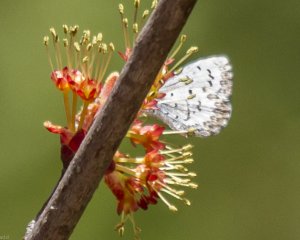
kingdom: Animalia
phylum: Arthropoda
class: Insecta
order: Lepidoptera
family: Lycaenidae
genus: Celastrina
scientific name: Celastrina lucia
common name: Northern Spring Azure
